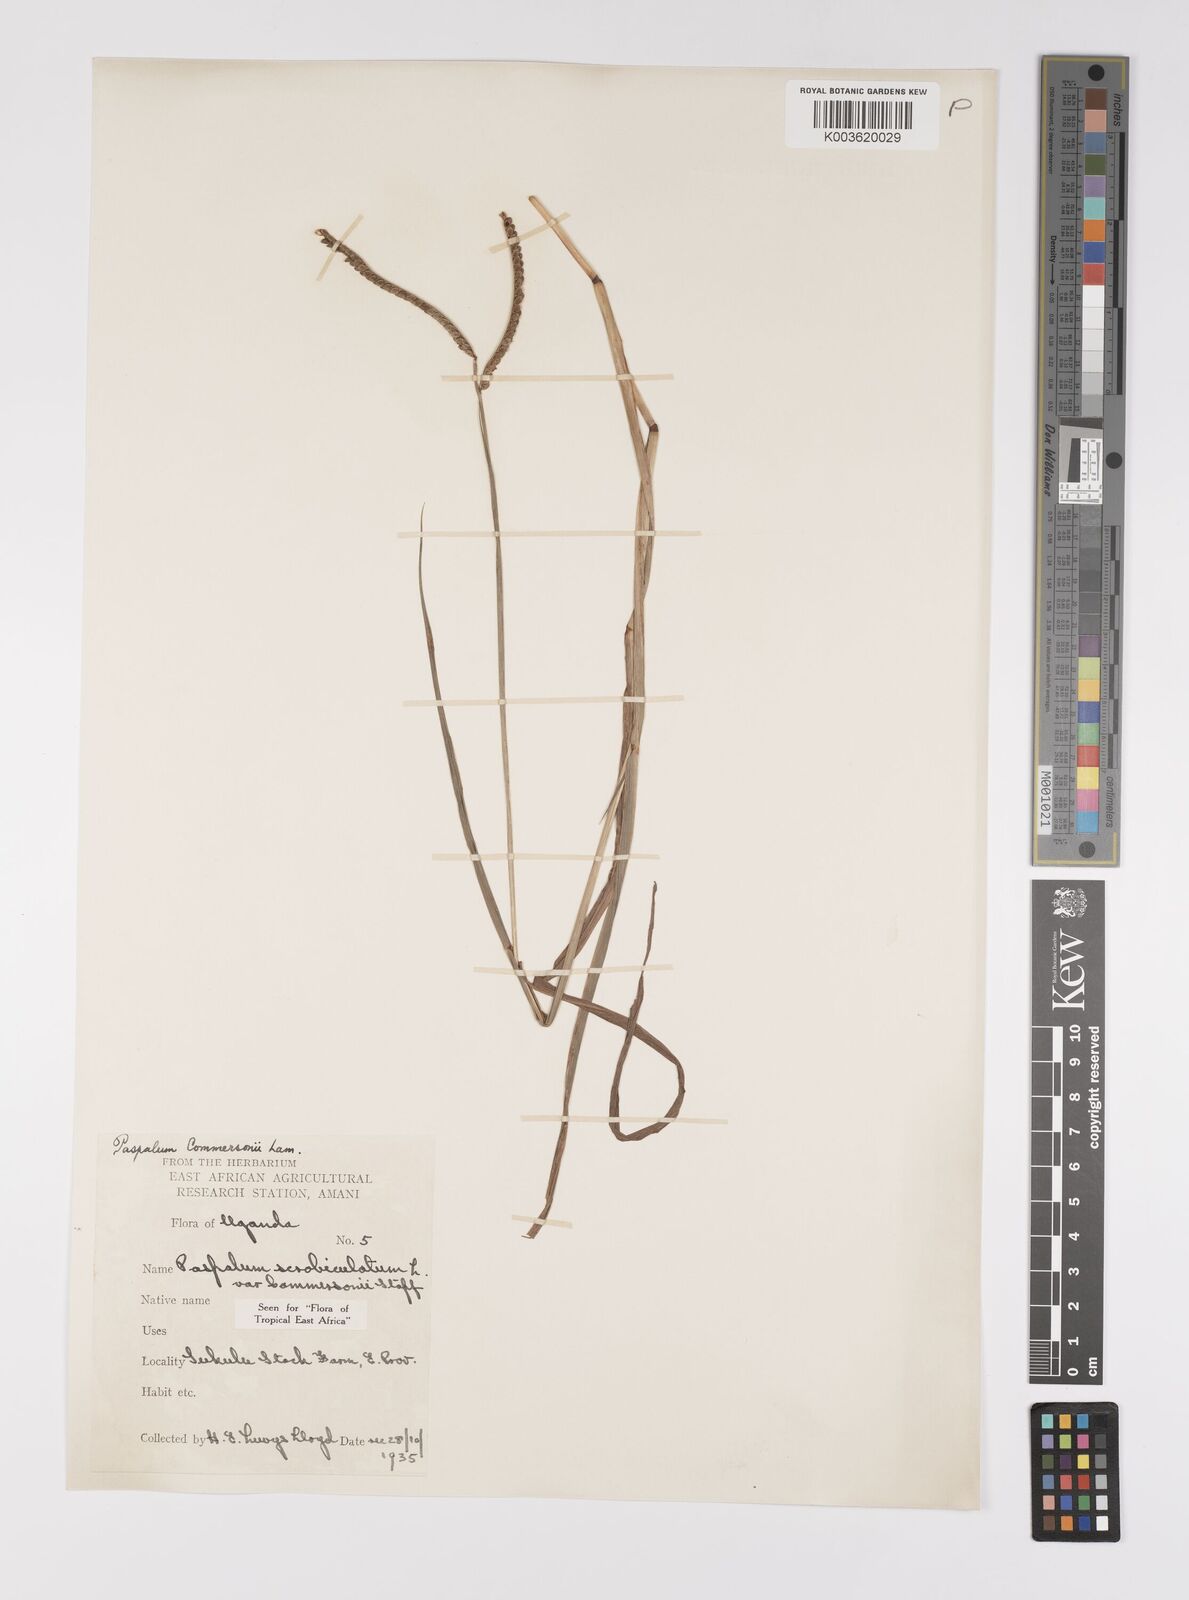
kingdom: Plantae
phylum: Tracheophyta
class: Liliopsida
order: Poales
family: Poaceae
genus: Paspalum
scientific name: Paspalum scrobiculatum
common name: Kodo millet
